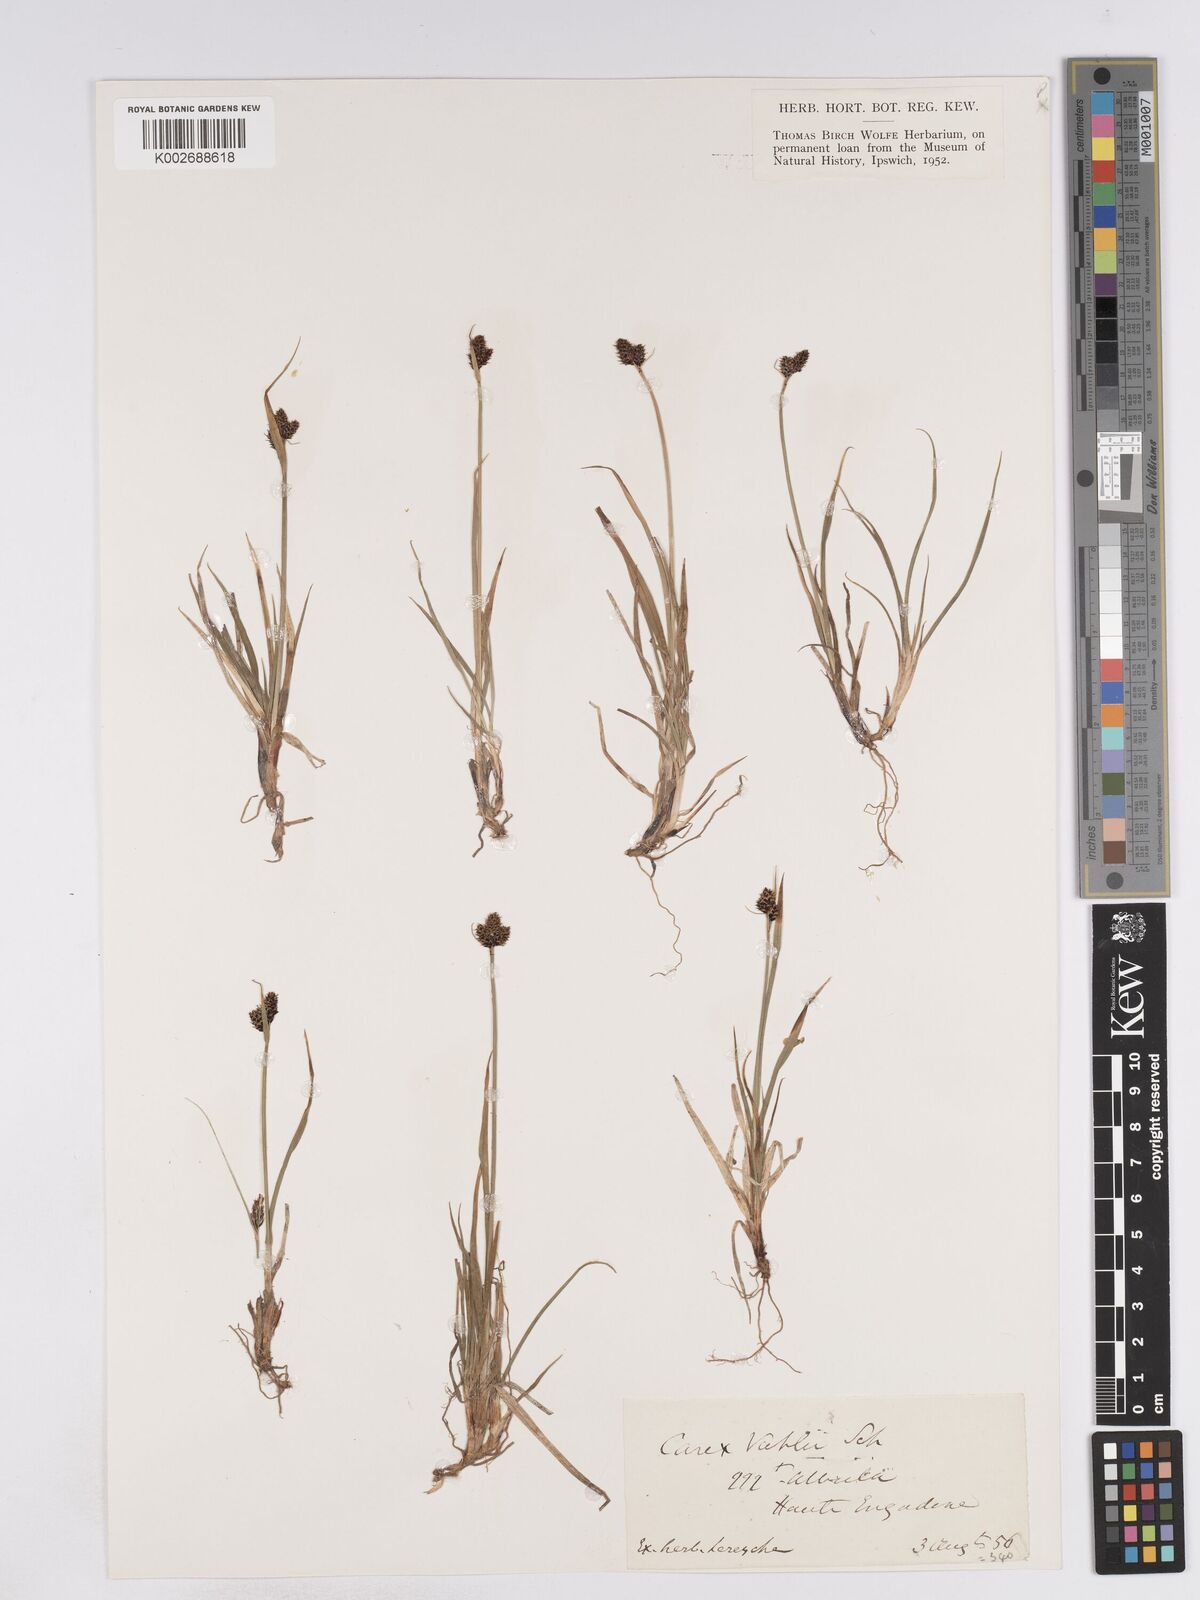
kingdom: Plantae
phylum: Tracheophyta
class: Liliopsida
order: Poales
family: Cyperaceae
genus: Carex
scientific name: Carex norvegica
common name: Close-headed alpine-sedge
